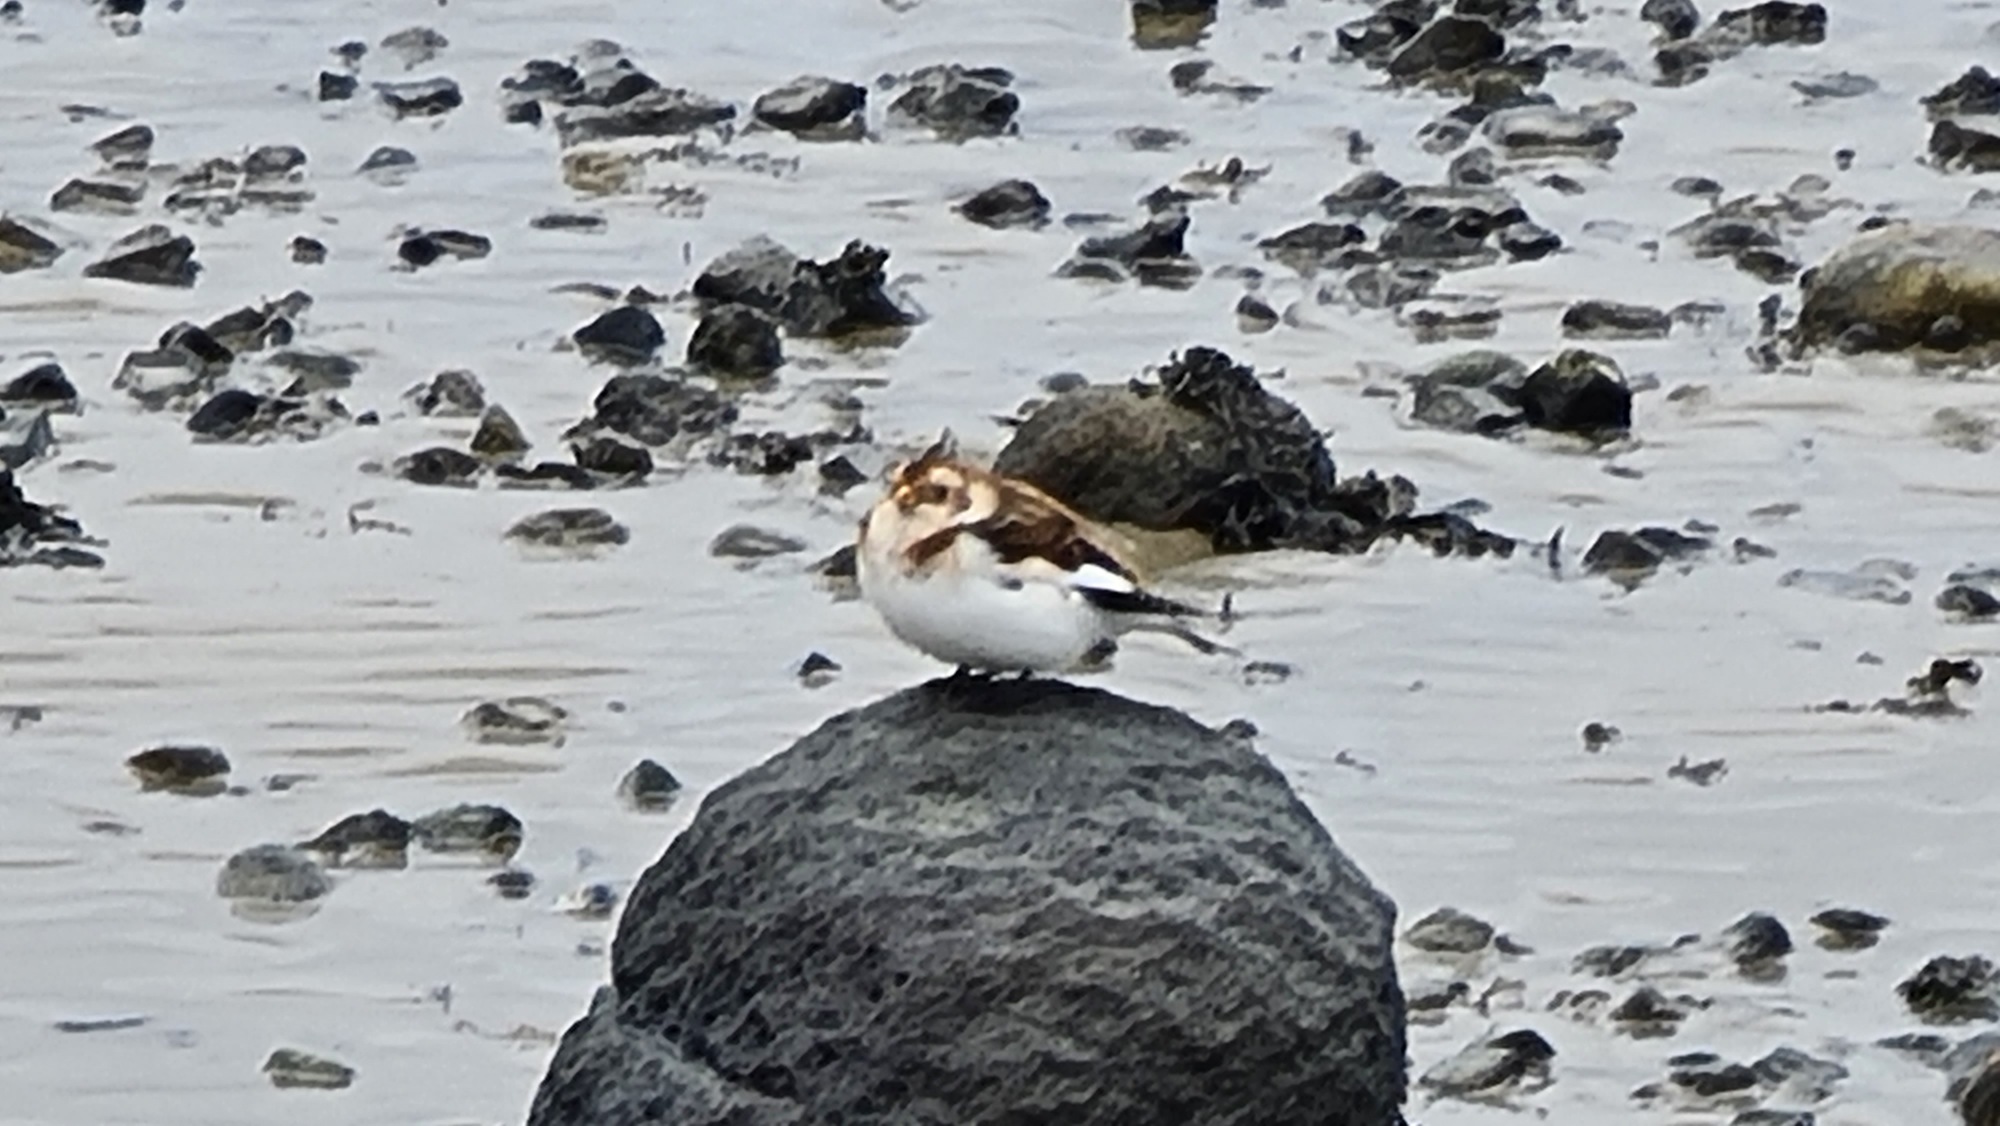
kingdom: Animalia
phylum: Chordata
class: Aves
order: Passeriformes
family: Calcariidae
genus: Plectrophenax
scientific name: Plectrophenax nivalis
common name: Snespurv
